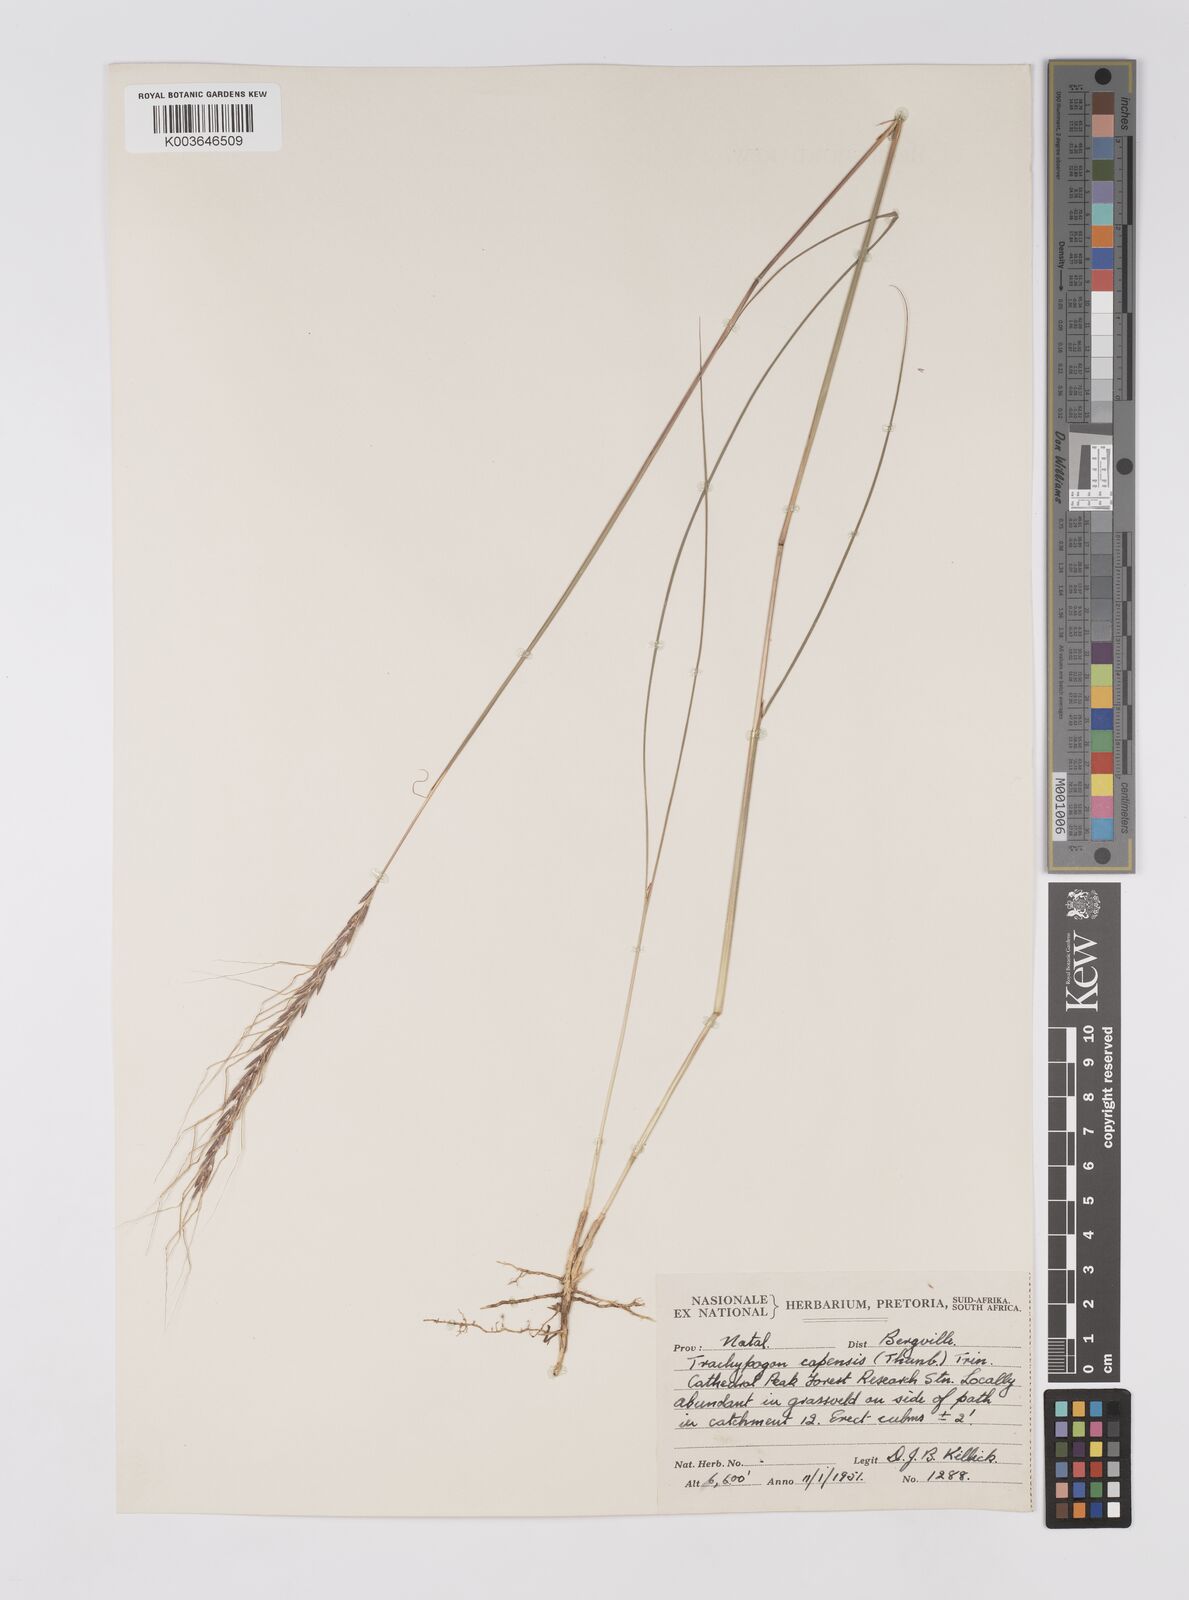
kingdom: Plantae
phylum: Tracheophyta
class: Liliopsida
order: Poales
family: Poaceae
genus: Trachypogon
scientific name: Trachypogon spicatus
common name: Crinkle-awn
